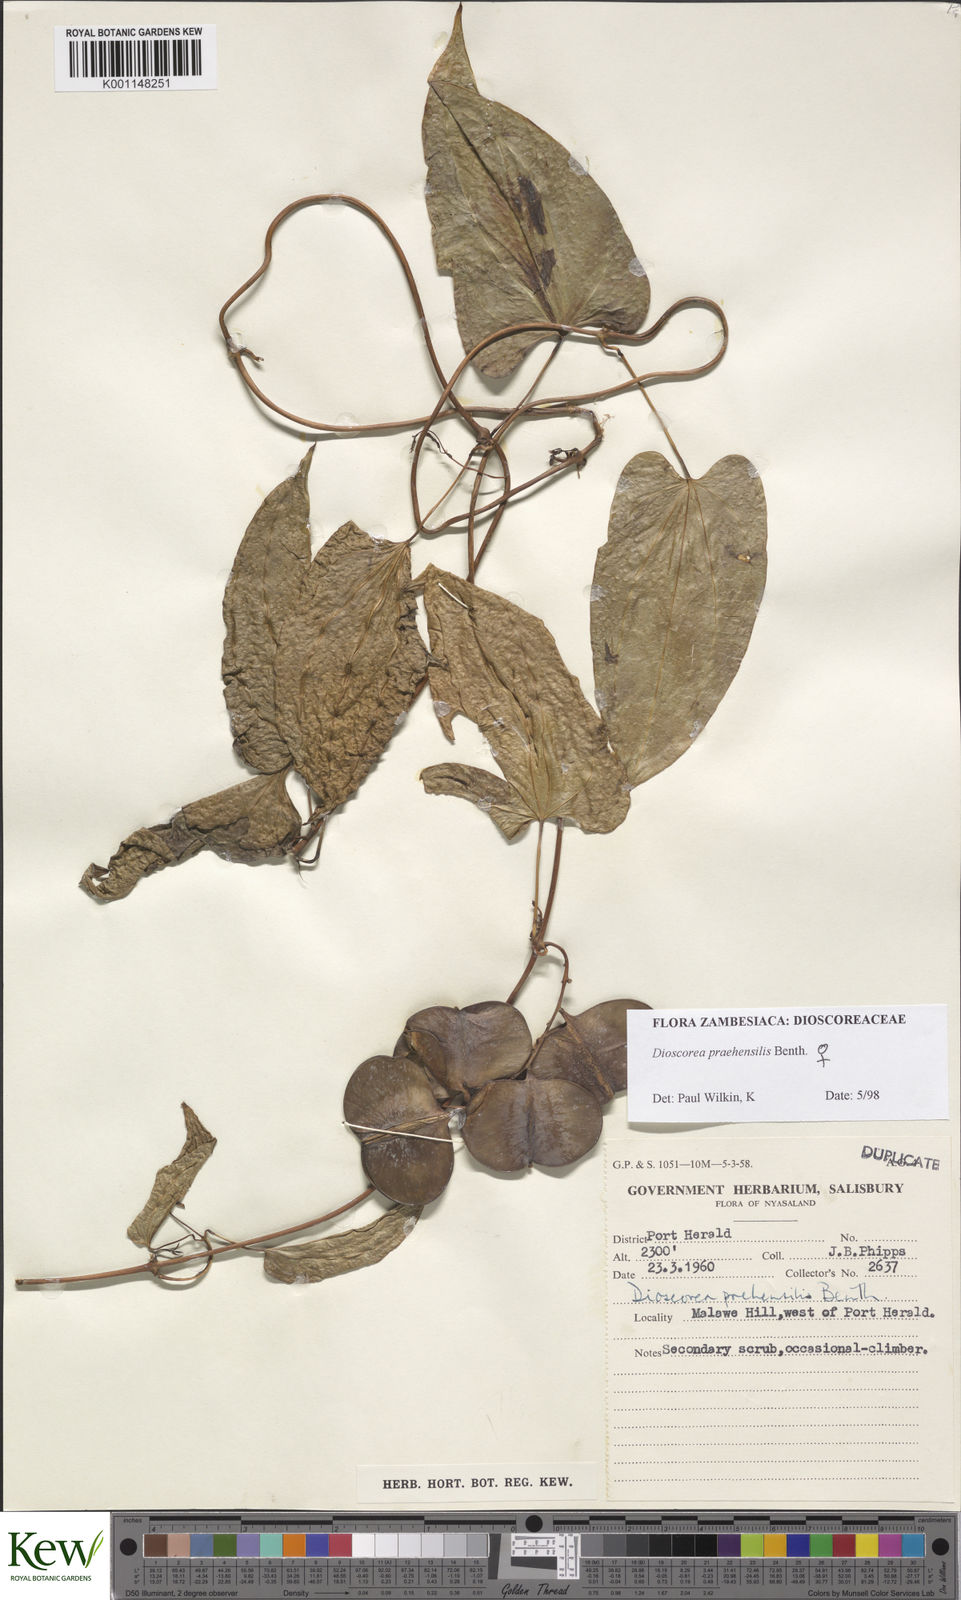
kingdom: Plantae
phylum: Tracheophyta
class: Liliopsida
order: Dioscoreales
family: Dioscoreaceae
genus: Dioscorea
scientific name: Dioscorea praehensilis
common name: Bush yam
